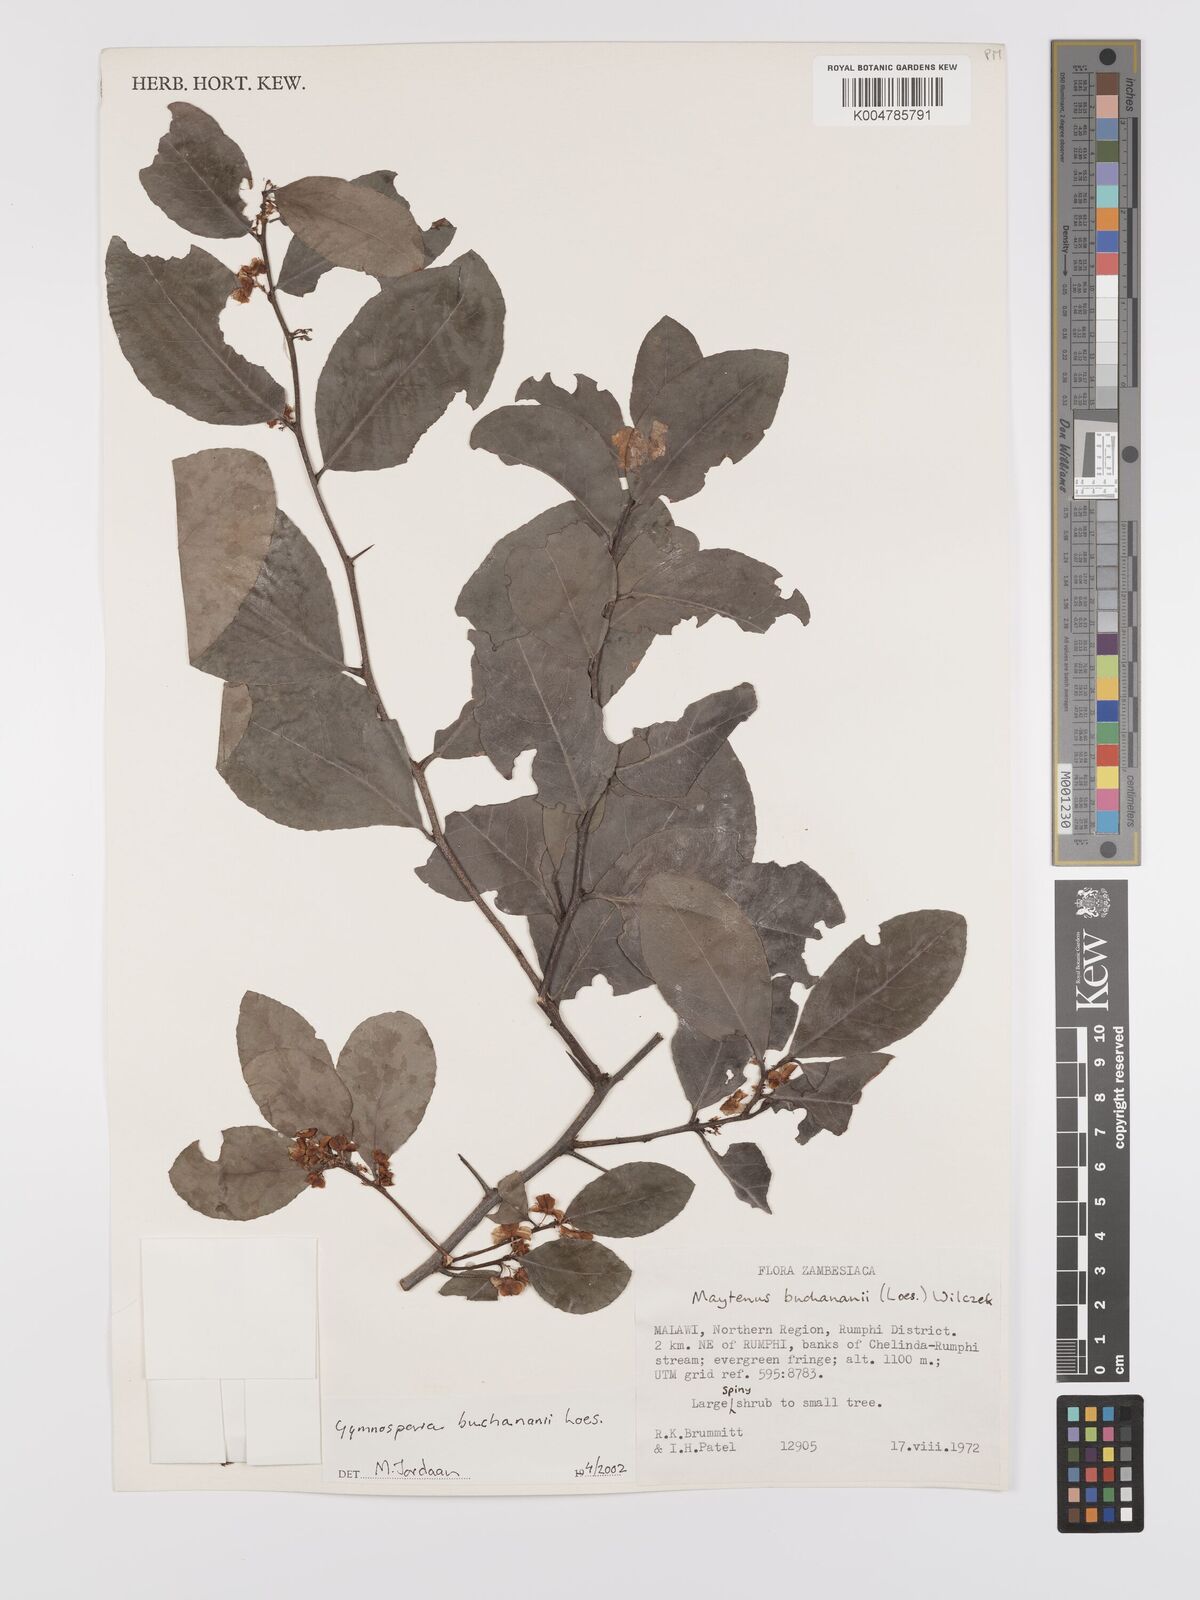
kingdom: Plantae
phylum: Tracheophyta
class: Magnoliopsida
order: Celastrales
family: Celastraceae
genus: Gymnosporia
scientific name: Gymnosporia buchananii
